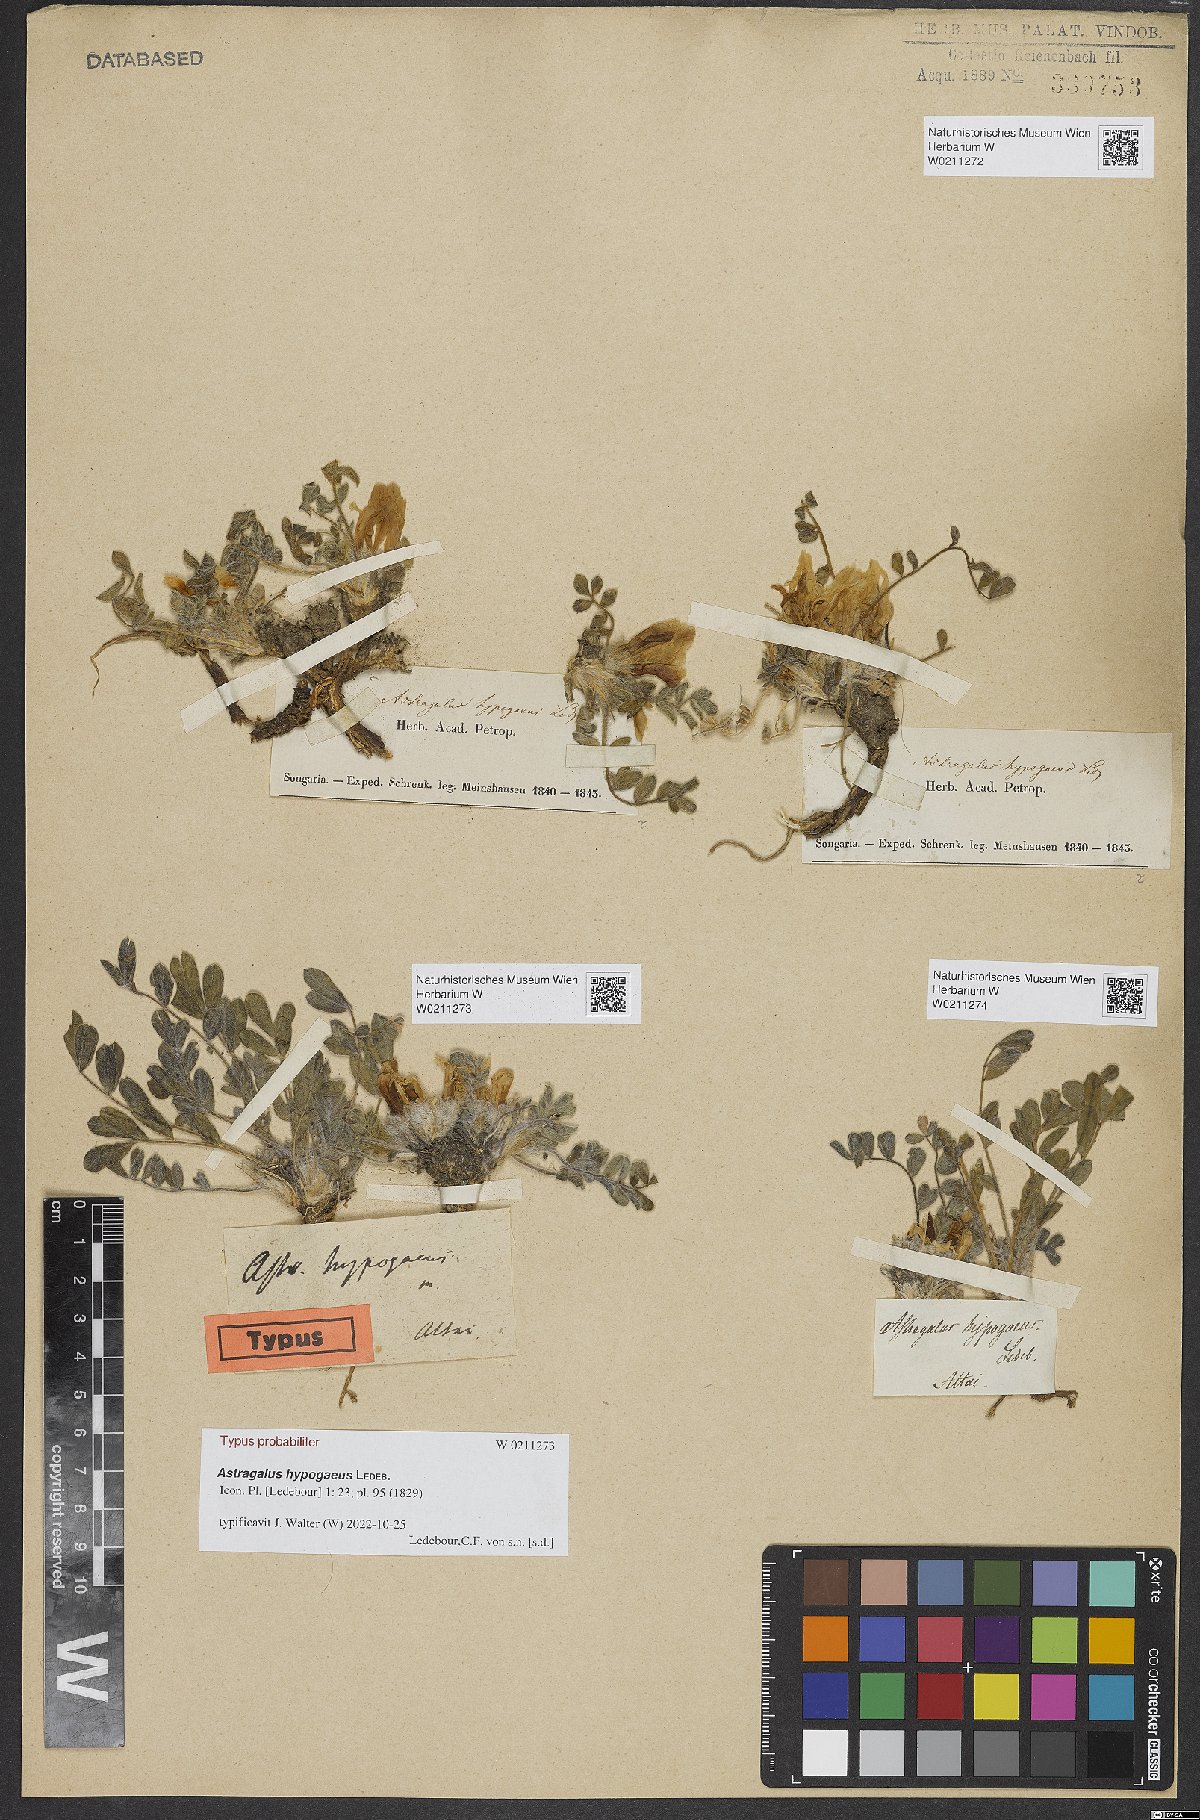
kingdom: Plantae
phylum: Tracheophyta
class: Magnoliopsida
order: Fabales
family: Fabaceae
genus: Astragalus
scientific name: Astragalus hypogaeus
